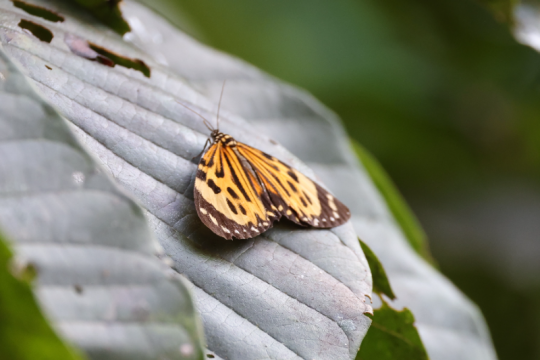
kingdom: Animalia
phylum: Arthropoda
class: Insecta
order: Lepidoptera
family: Nymphalidae
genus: Tithorea
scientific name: Tithorea harmonia
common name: Harmonia Tigerwing
